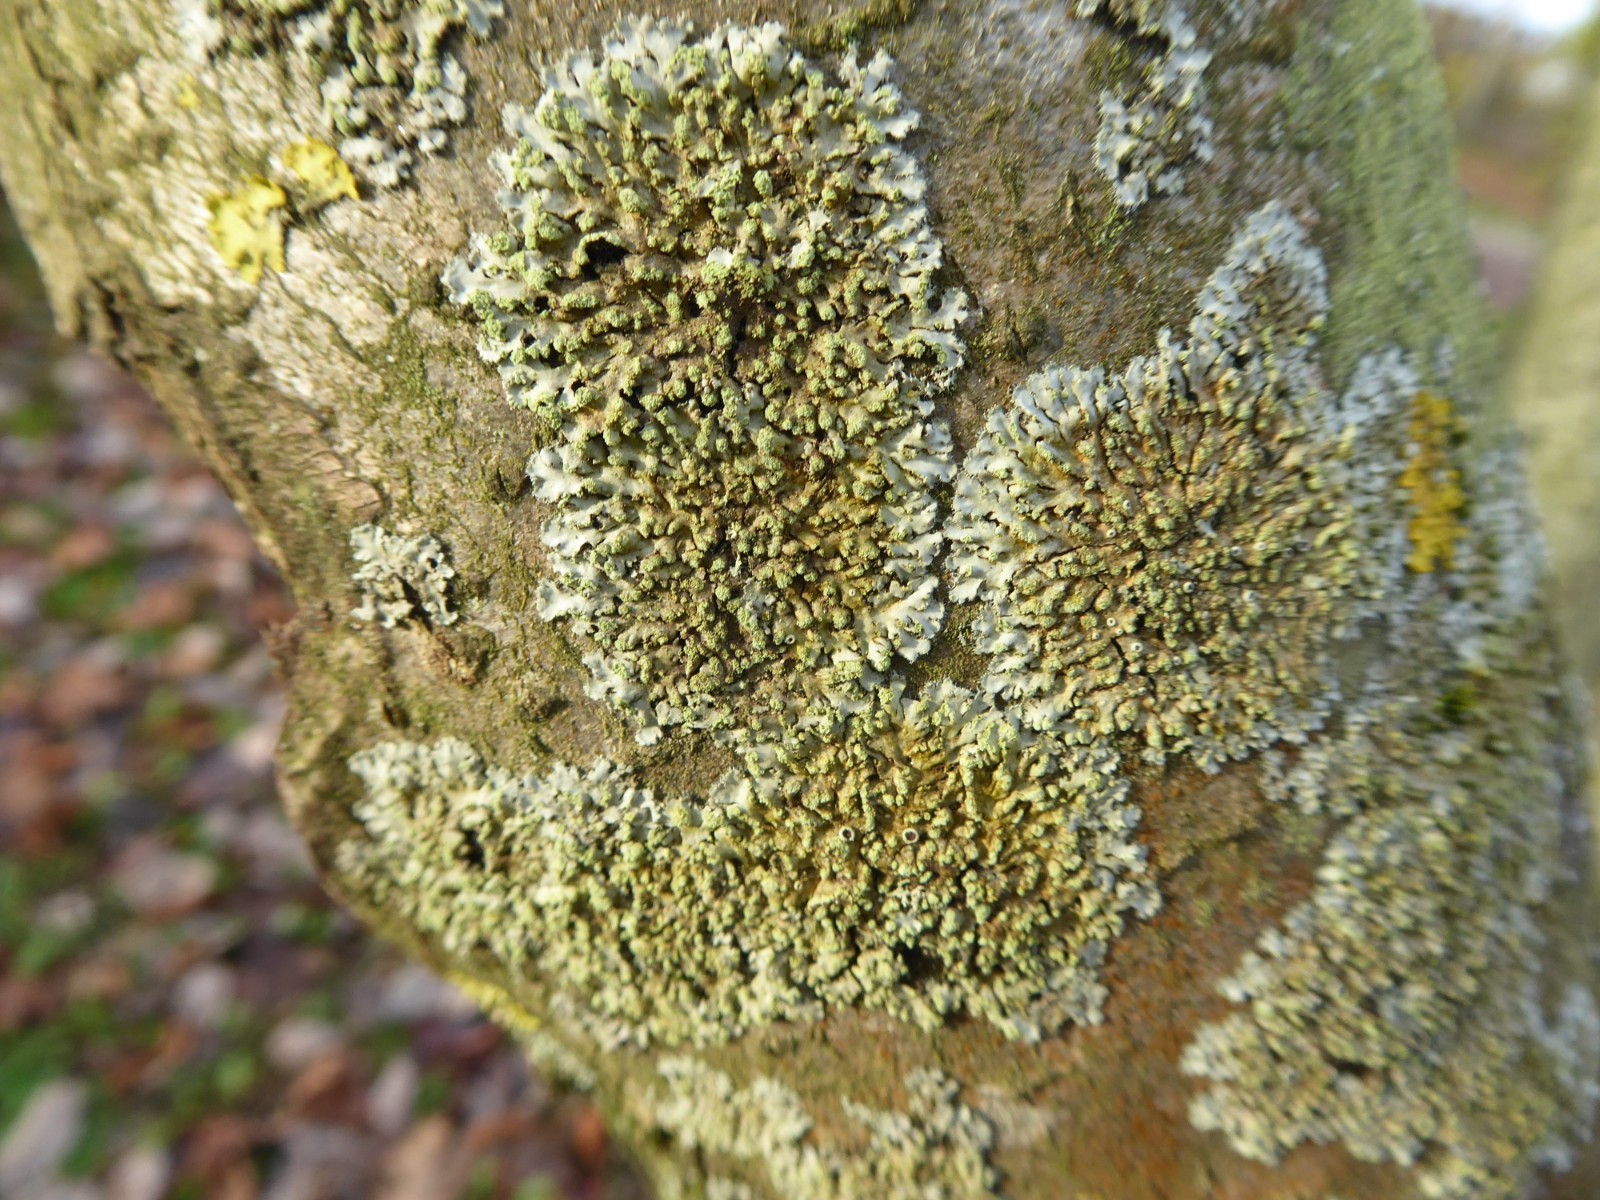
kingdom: Fungi
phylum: Ascomycota
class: Lecanoromycetes
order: Caliciales
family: Physciaceae
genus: Phaeophyscia
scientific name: Phaeophyscia orbicularis
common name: grågrøn rosetlav
